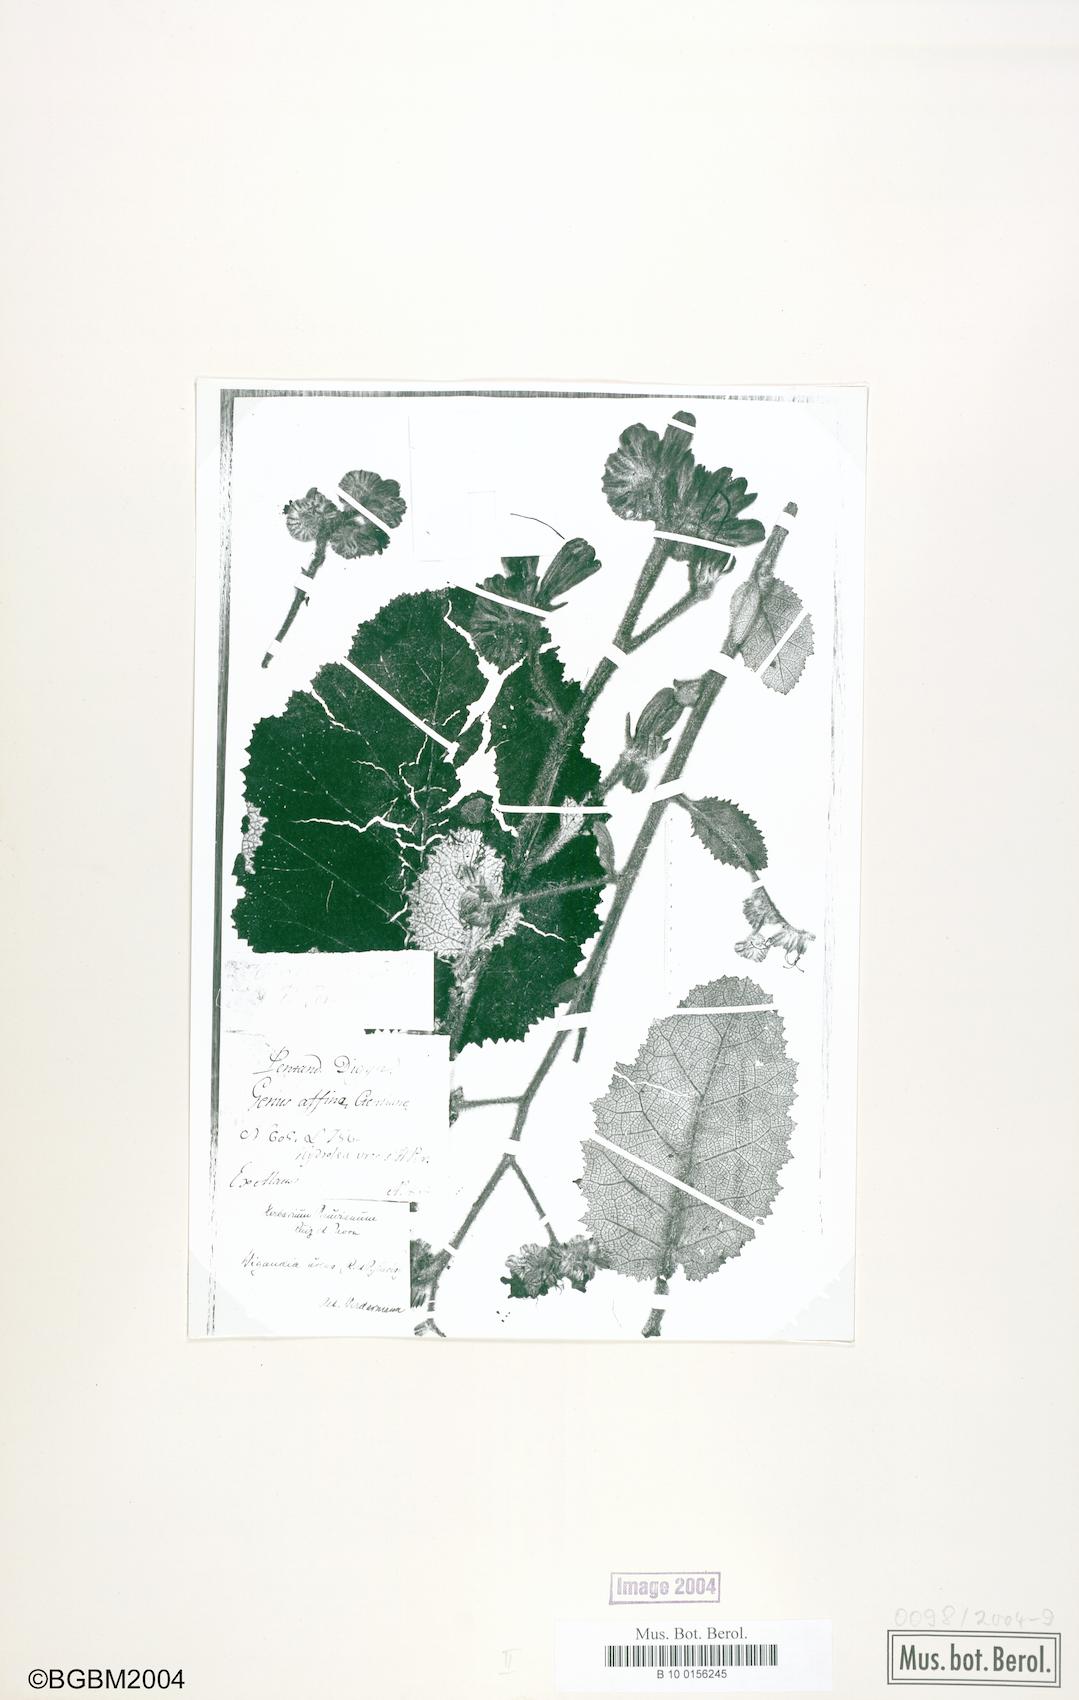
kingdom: Plantae
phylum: Tracheophyta
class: Magnoliopsida
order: Boraginales
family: Namaceae
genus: Wigandia
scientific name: Wigandia urens
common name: Caracus wigandia
